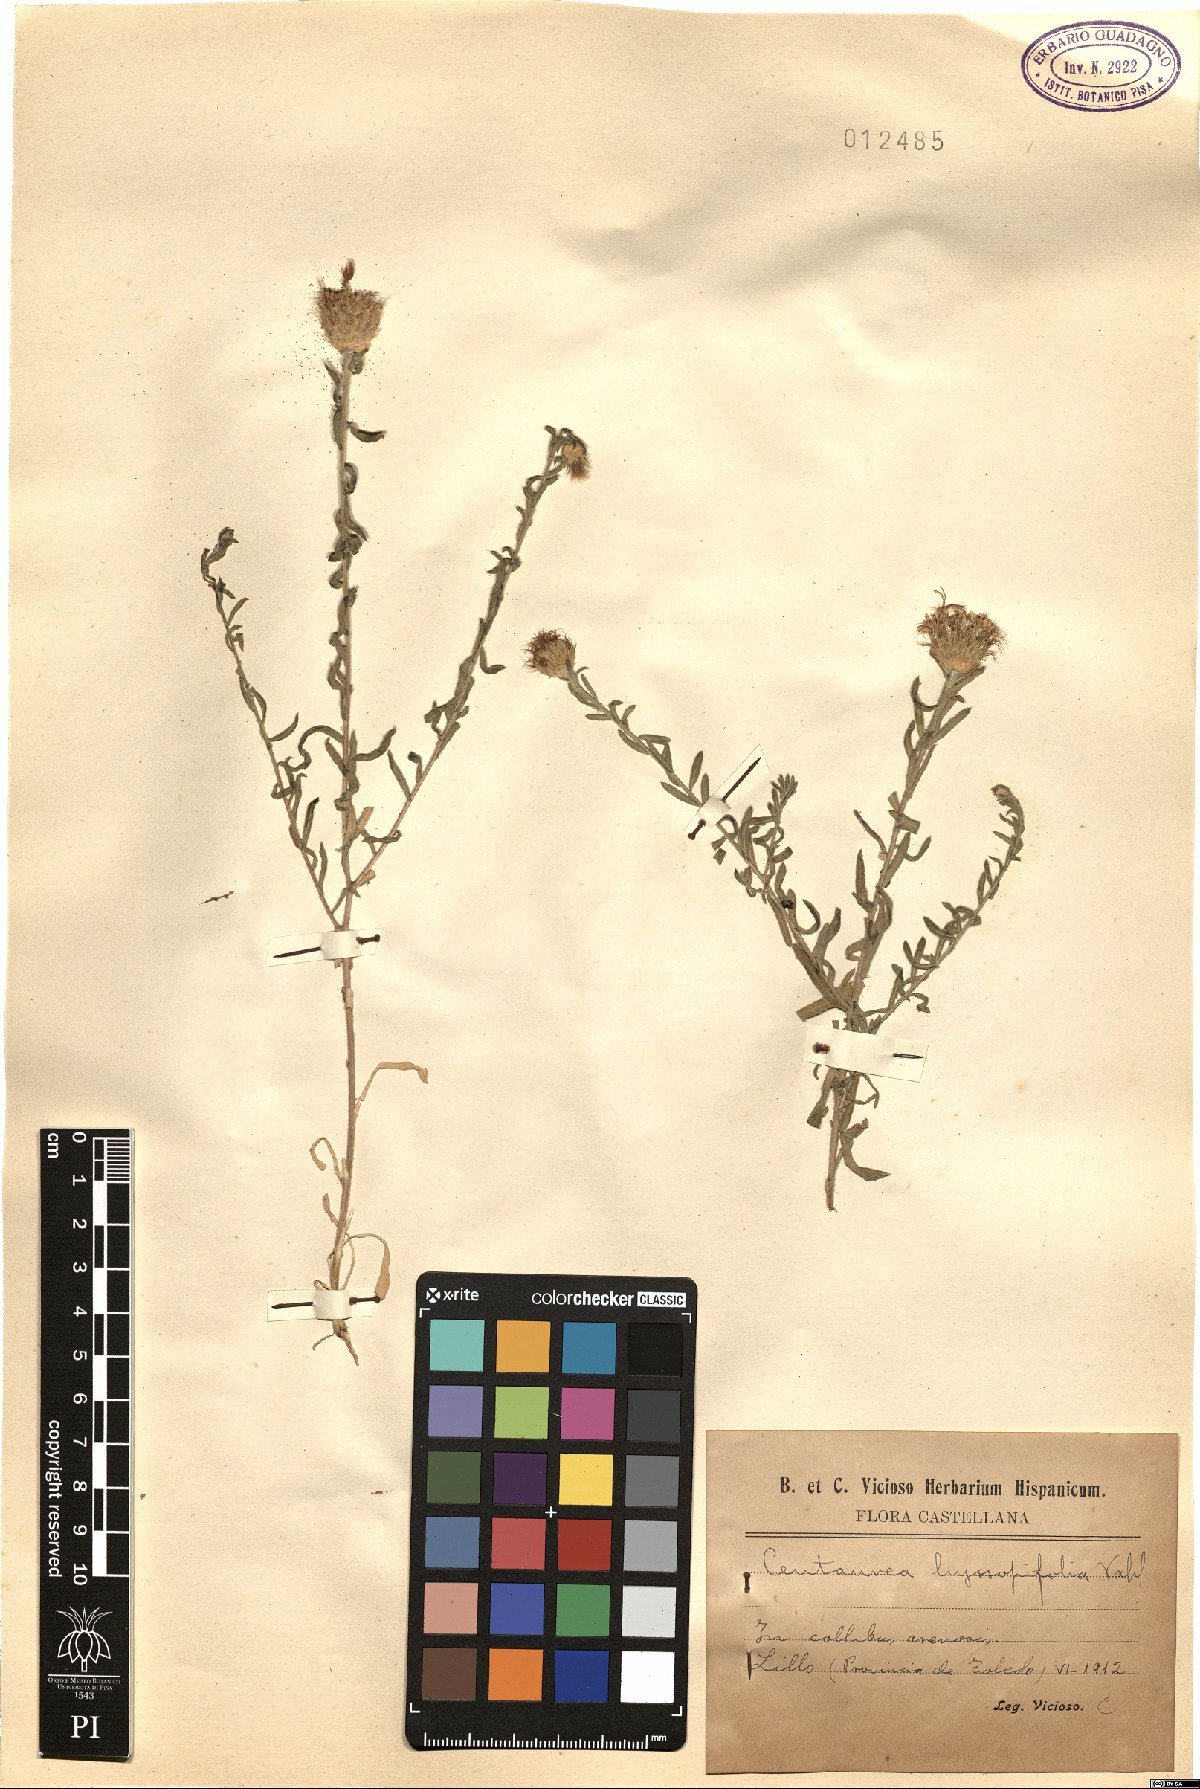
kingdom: Plantae
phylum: Tracheophyta
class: Magnoliopsida
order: Asterales
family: Asteraceae
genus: Centaurea
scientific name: Centaurea hyssopifolia
